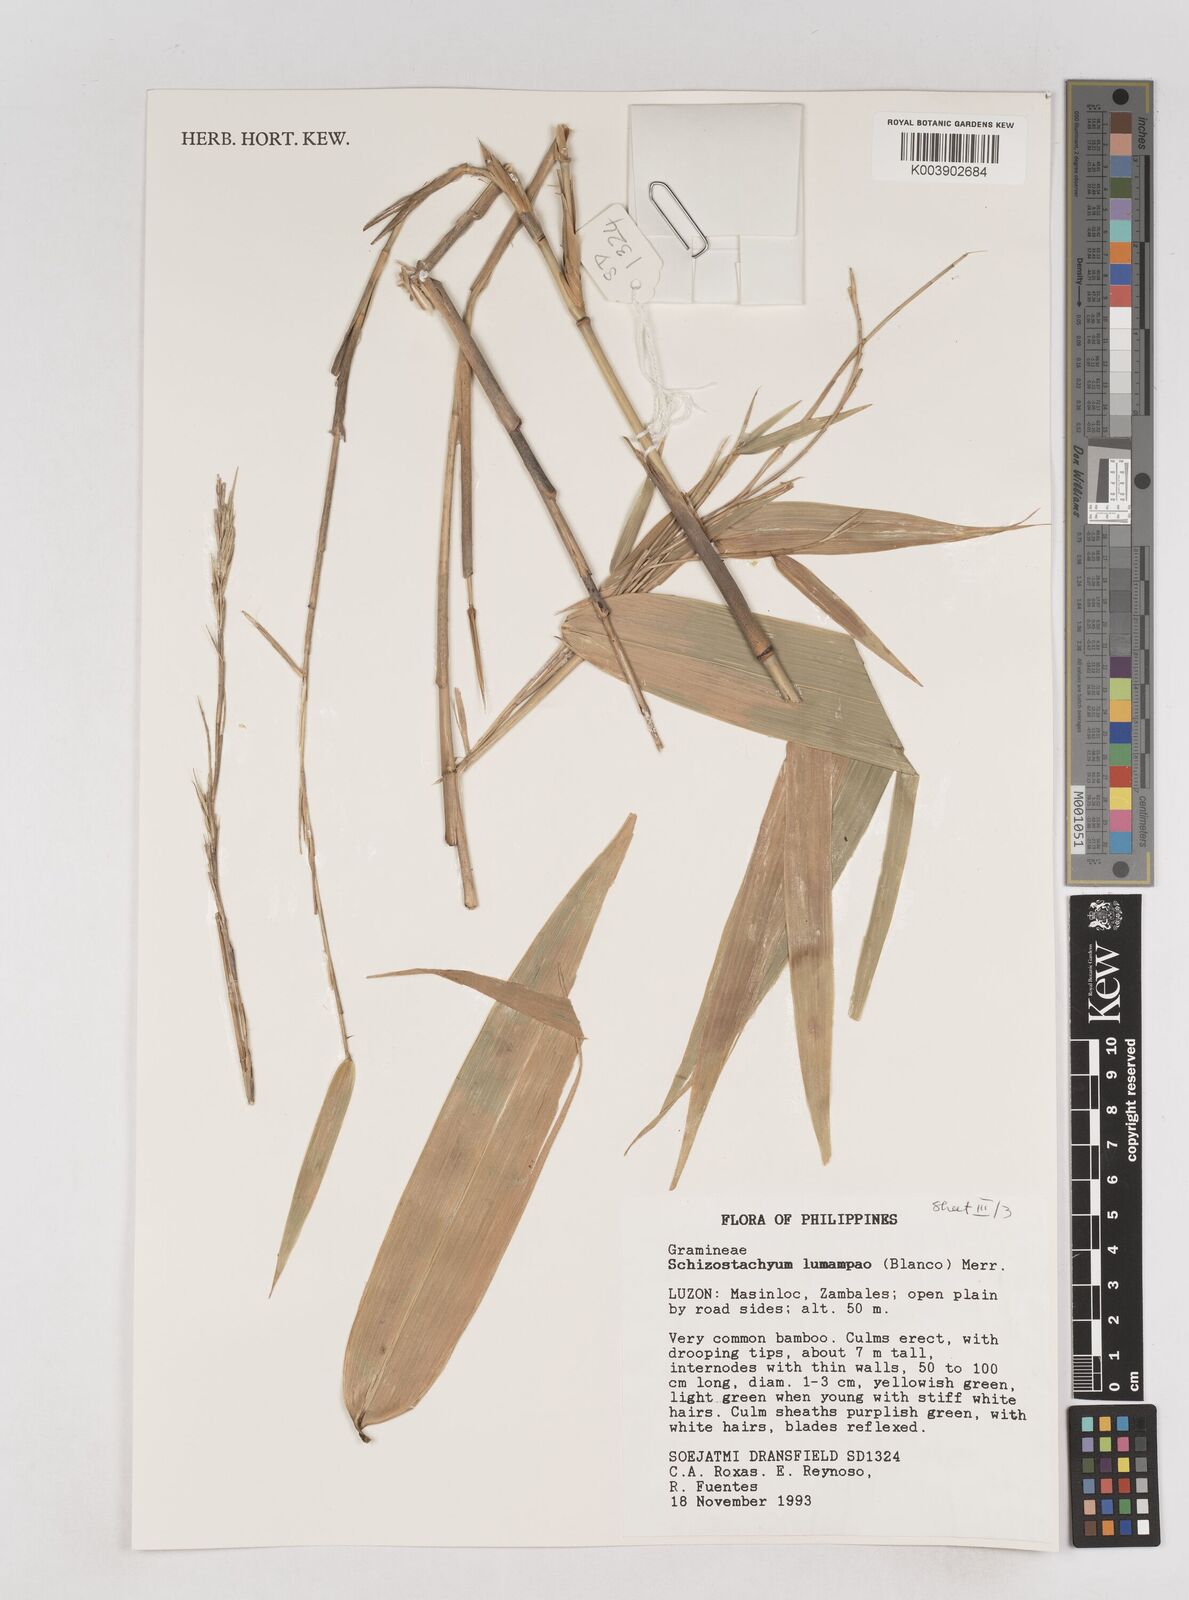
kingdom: Plantae
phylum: Tracheophyta
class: Liliopsida
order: Poales
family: Poaceae
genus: Schizostachyum
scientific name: Schizostachyum lumampao
